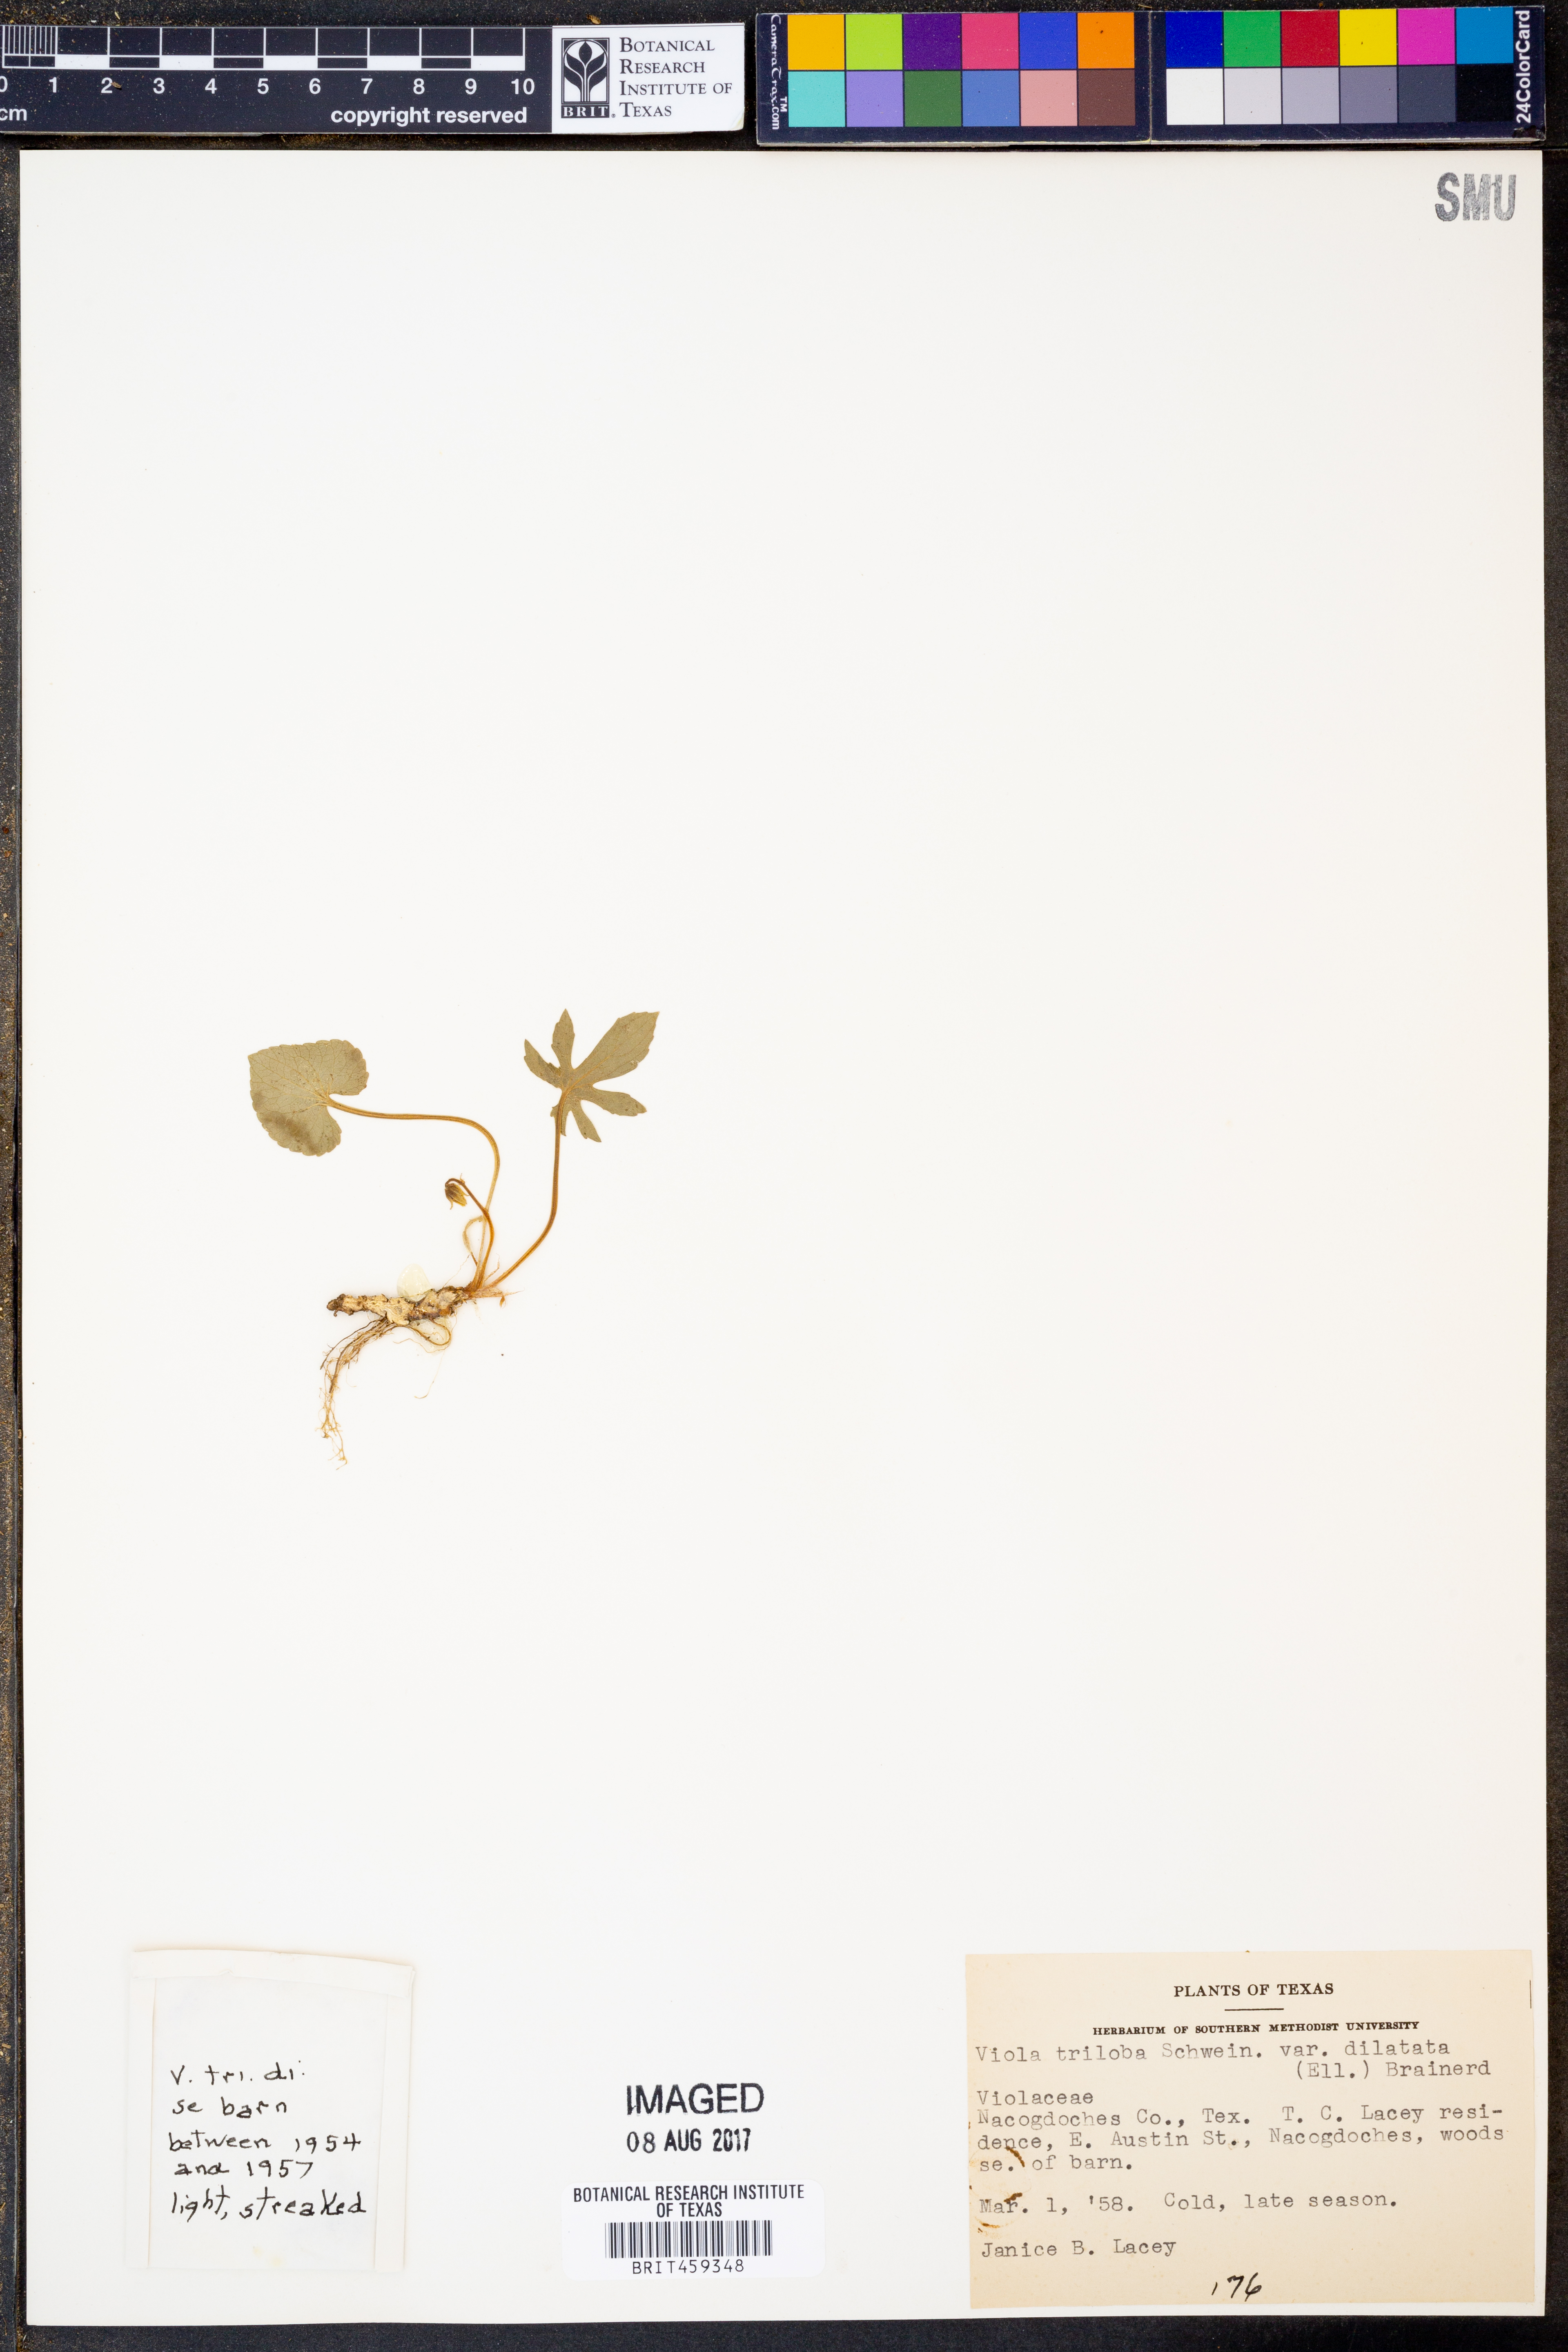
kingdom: Plantae
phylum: Tracheophyta
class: Magnoliopsida
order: Malpighiales
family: Violaceae
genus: Viola
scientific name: Viola palmata
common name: Early blue violet
